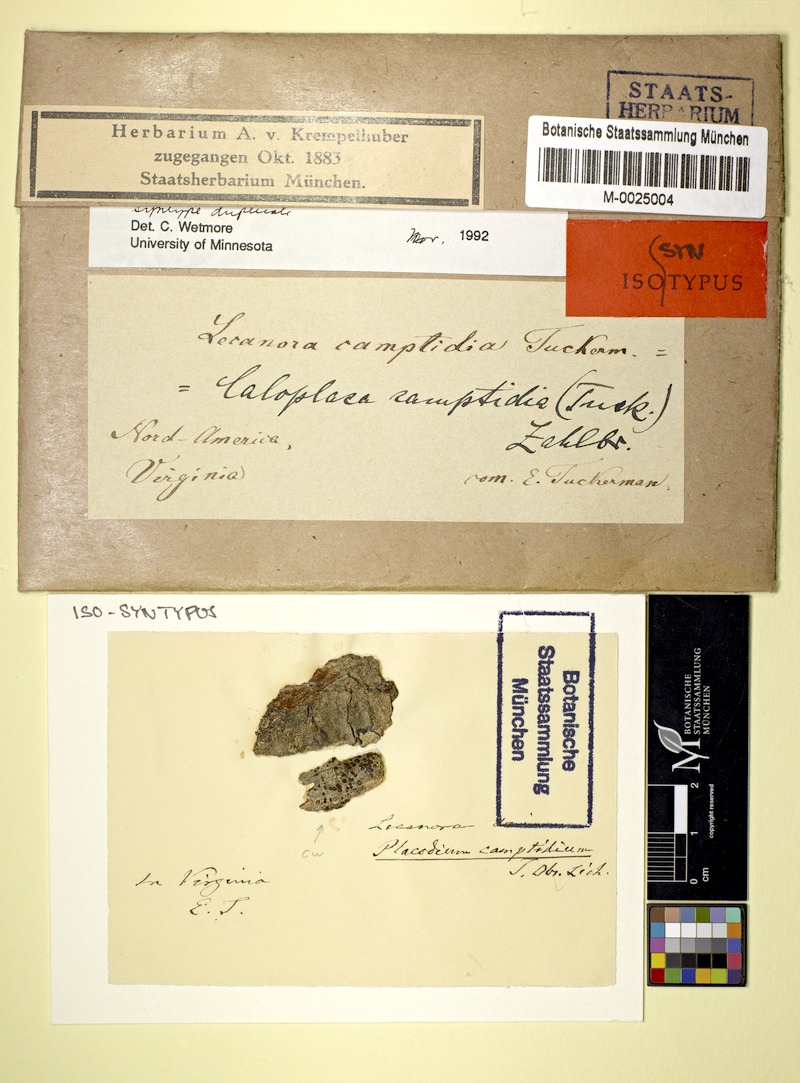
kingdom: Fungi
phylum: Ascomycota
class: Lecanoromycetes
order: Teloschistales
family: Teloschistaceae
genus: Obscuroplaca
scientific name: Obscuroplaca camptidia
